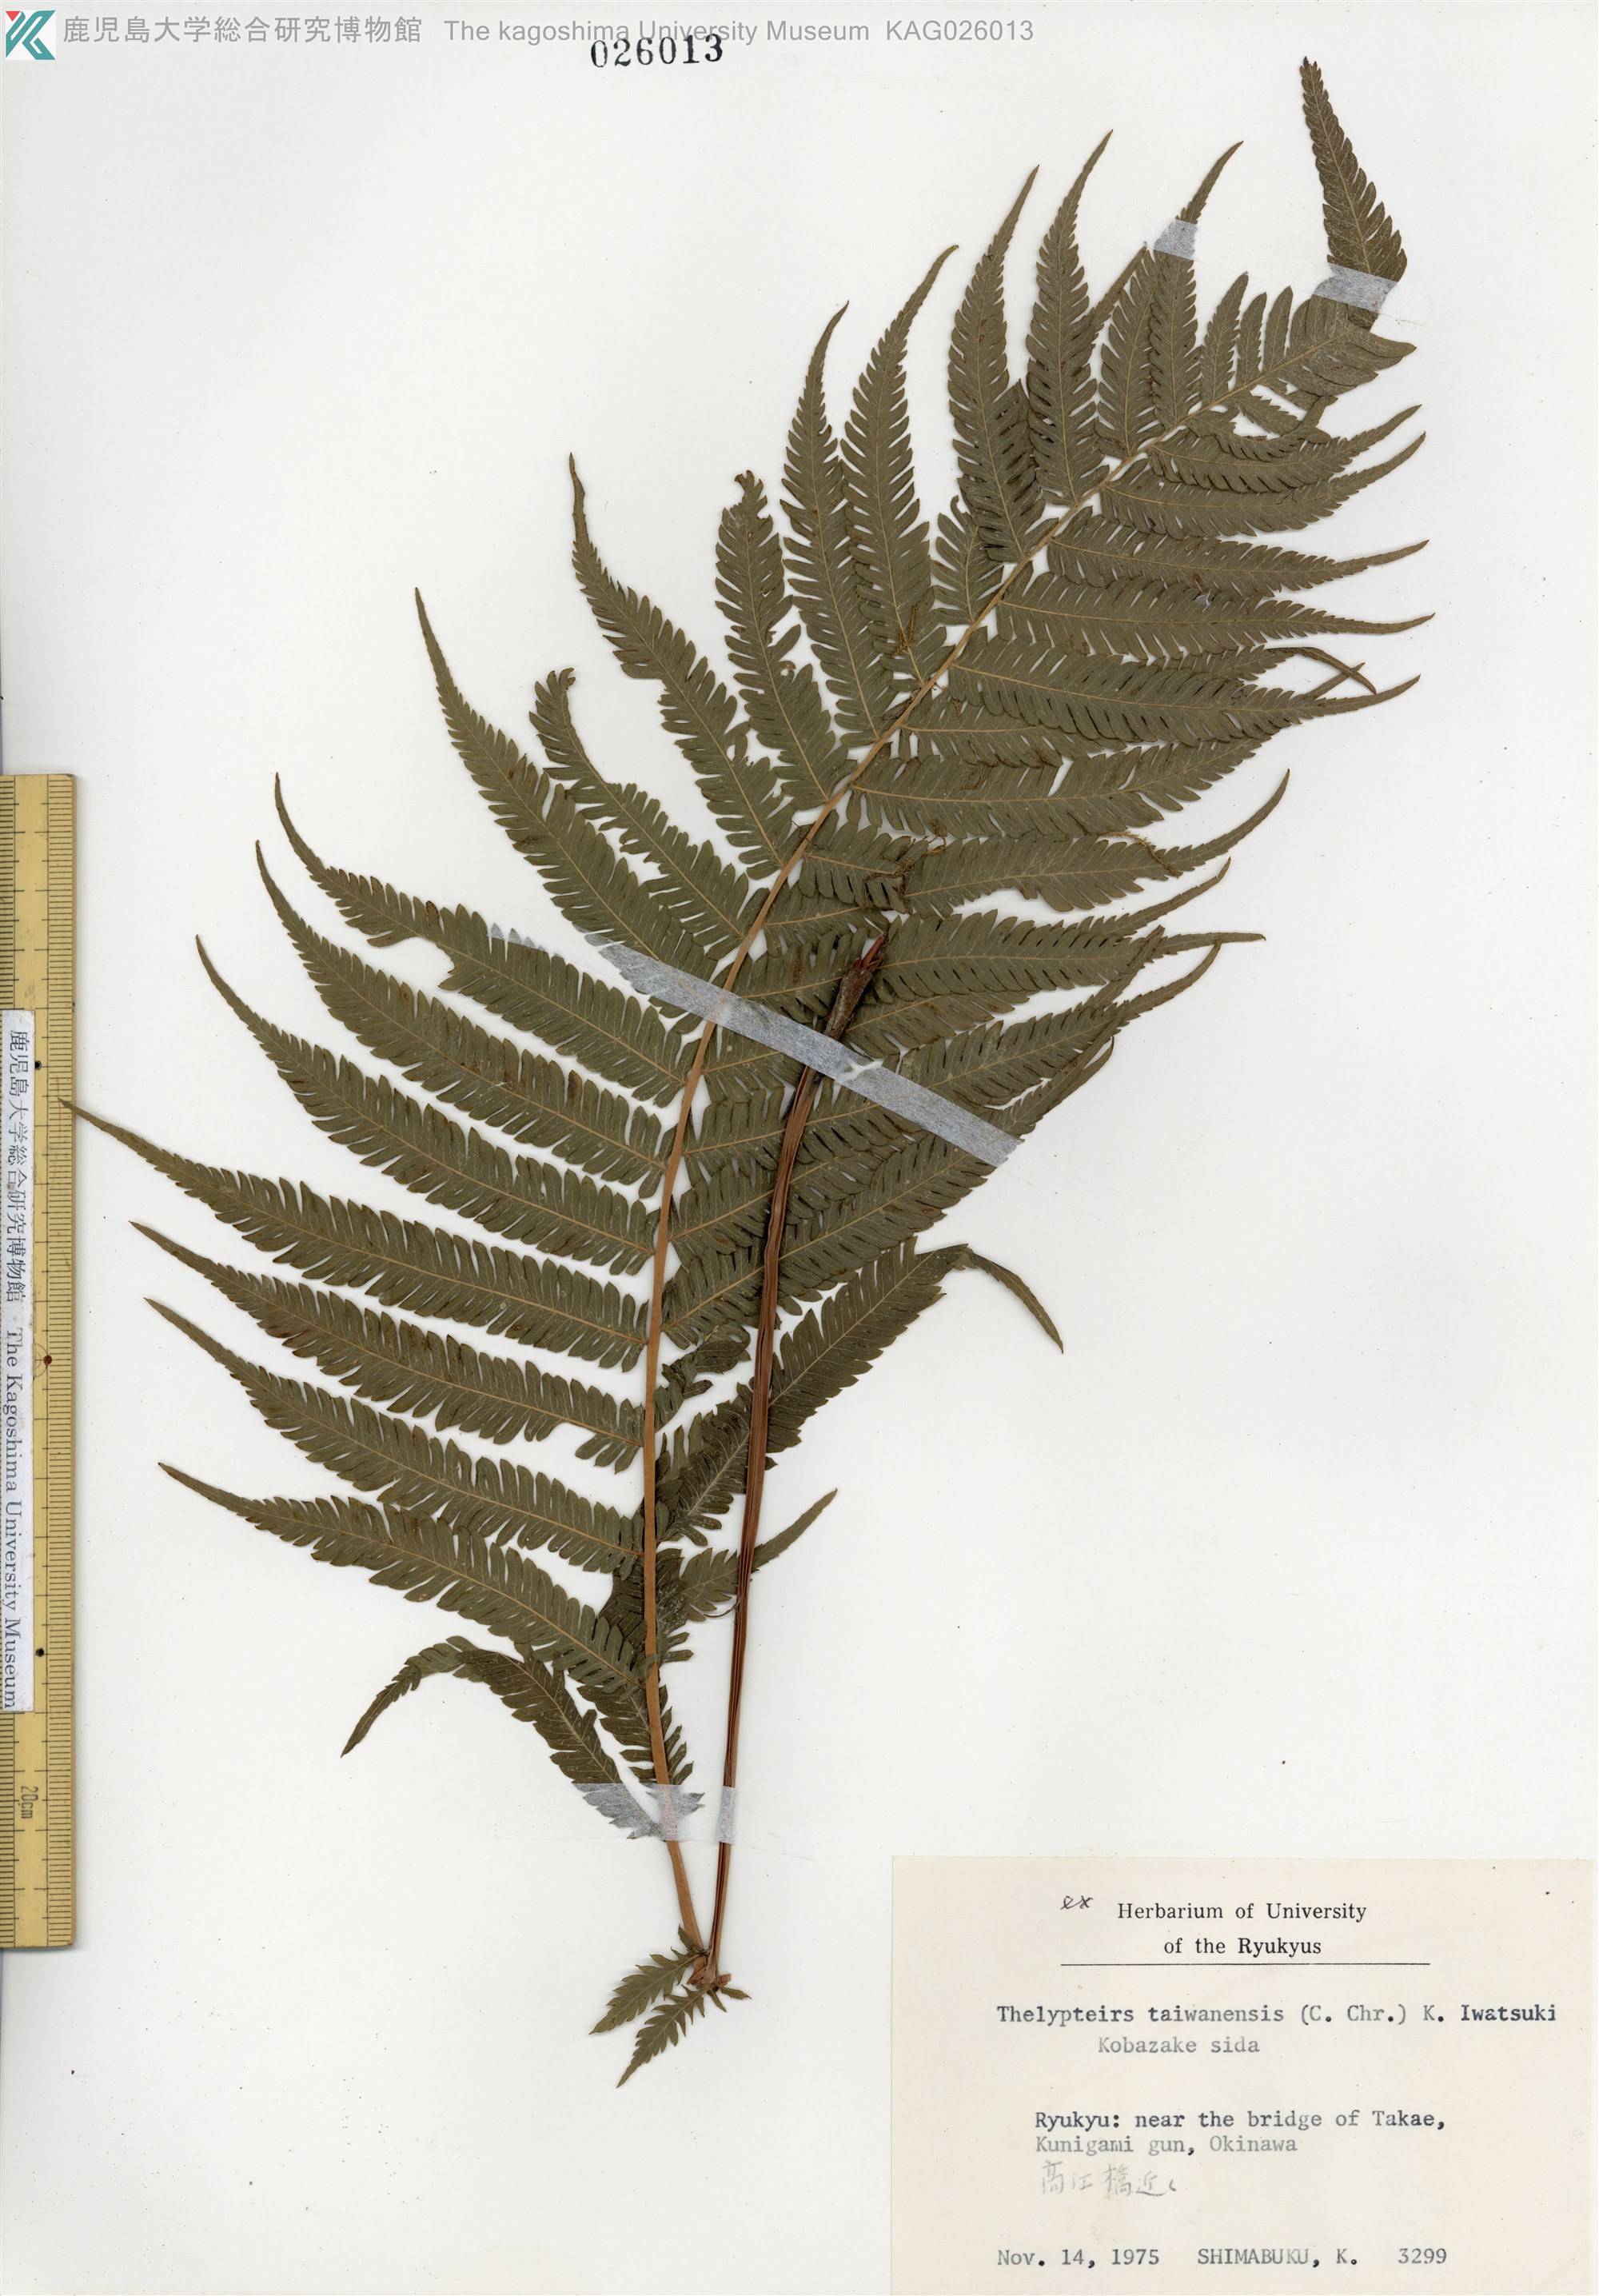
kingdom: Plantae
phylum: Tracheophyta
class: Polypodiopsida
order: Polypodiales
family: Thelypteridaceae
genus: Sphaerostephanos
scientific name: Sphaerostephanos taiwanensis
